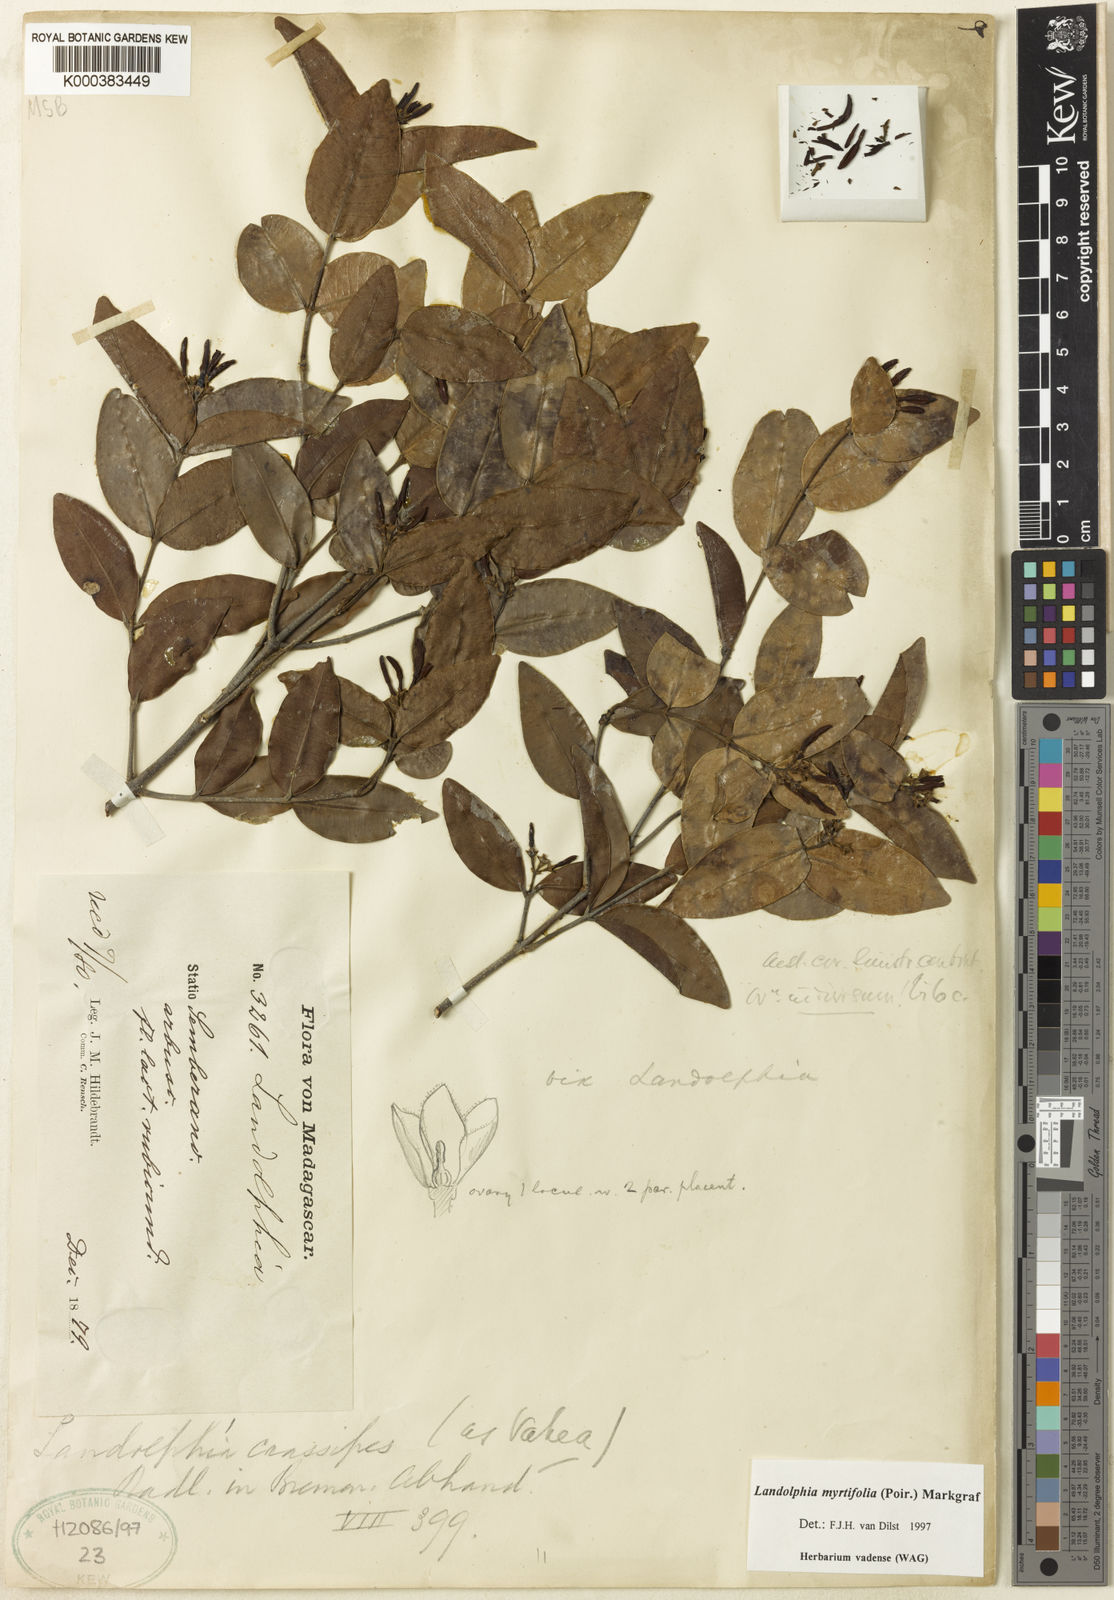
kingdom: Plantae
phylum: Tracheophyta
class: Magnoliopsida
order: Gentianales
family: Apocynaceae
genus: Landolphia
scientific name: Landolphia myrtifolia
